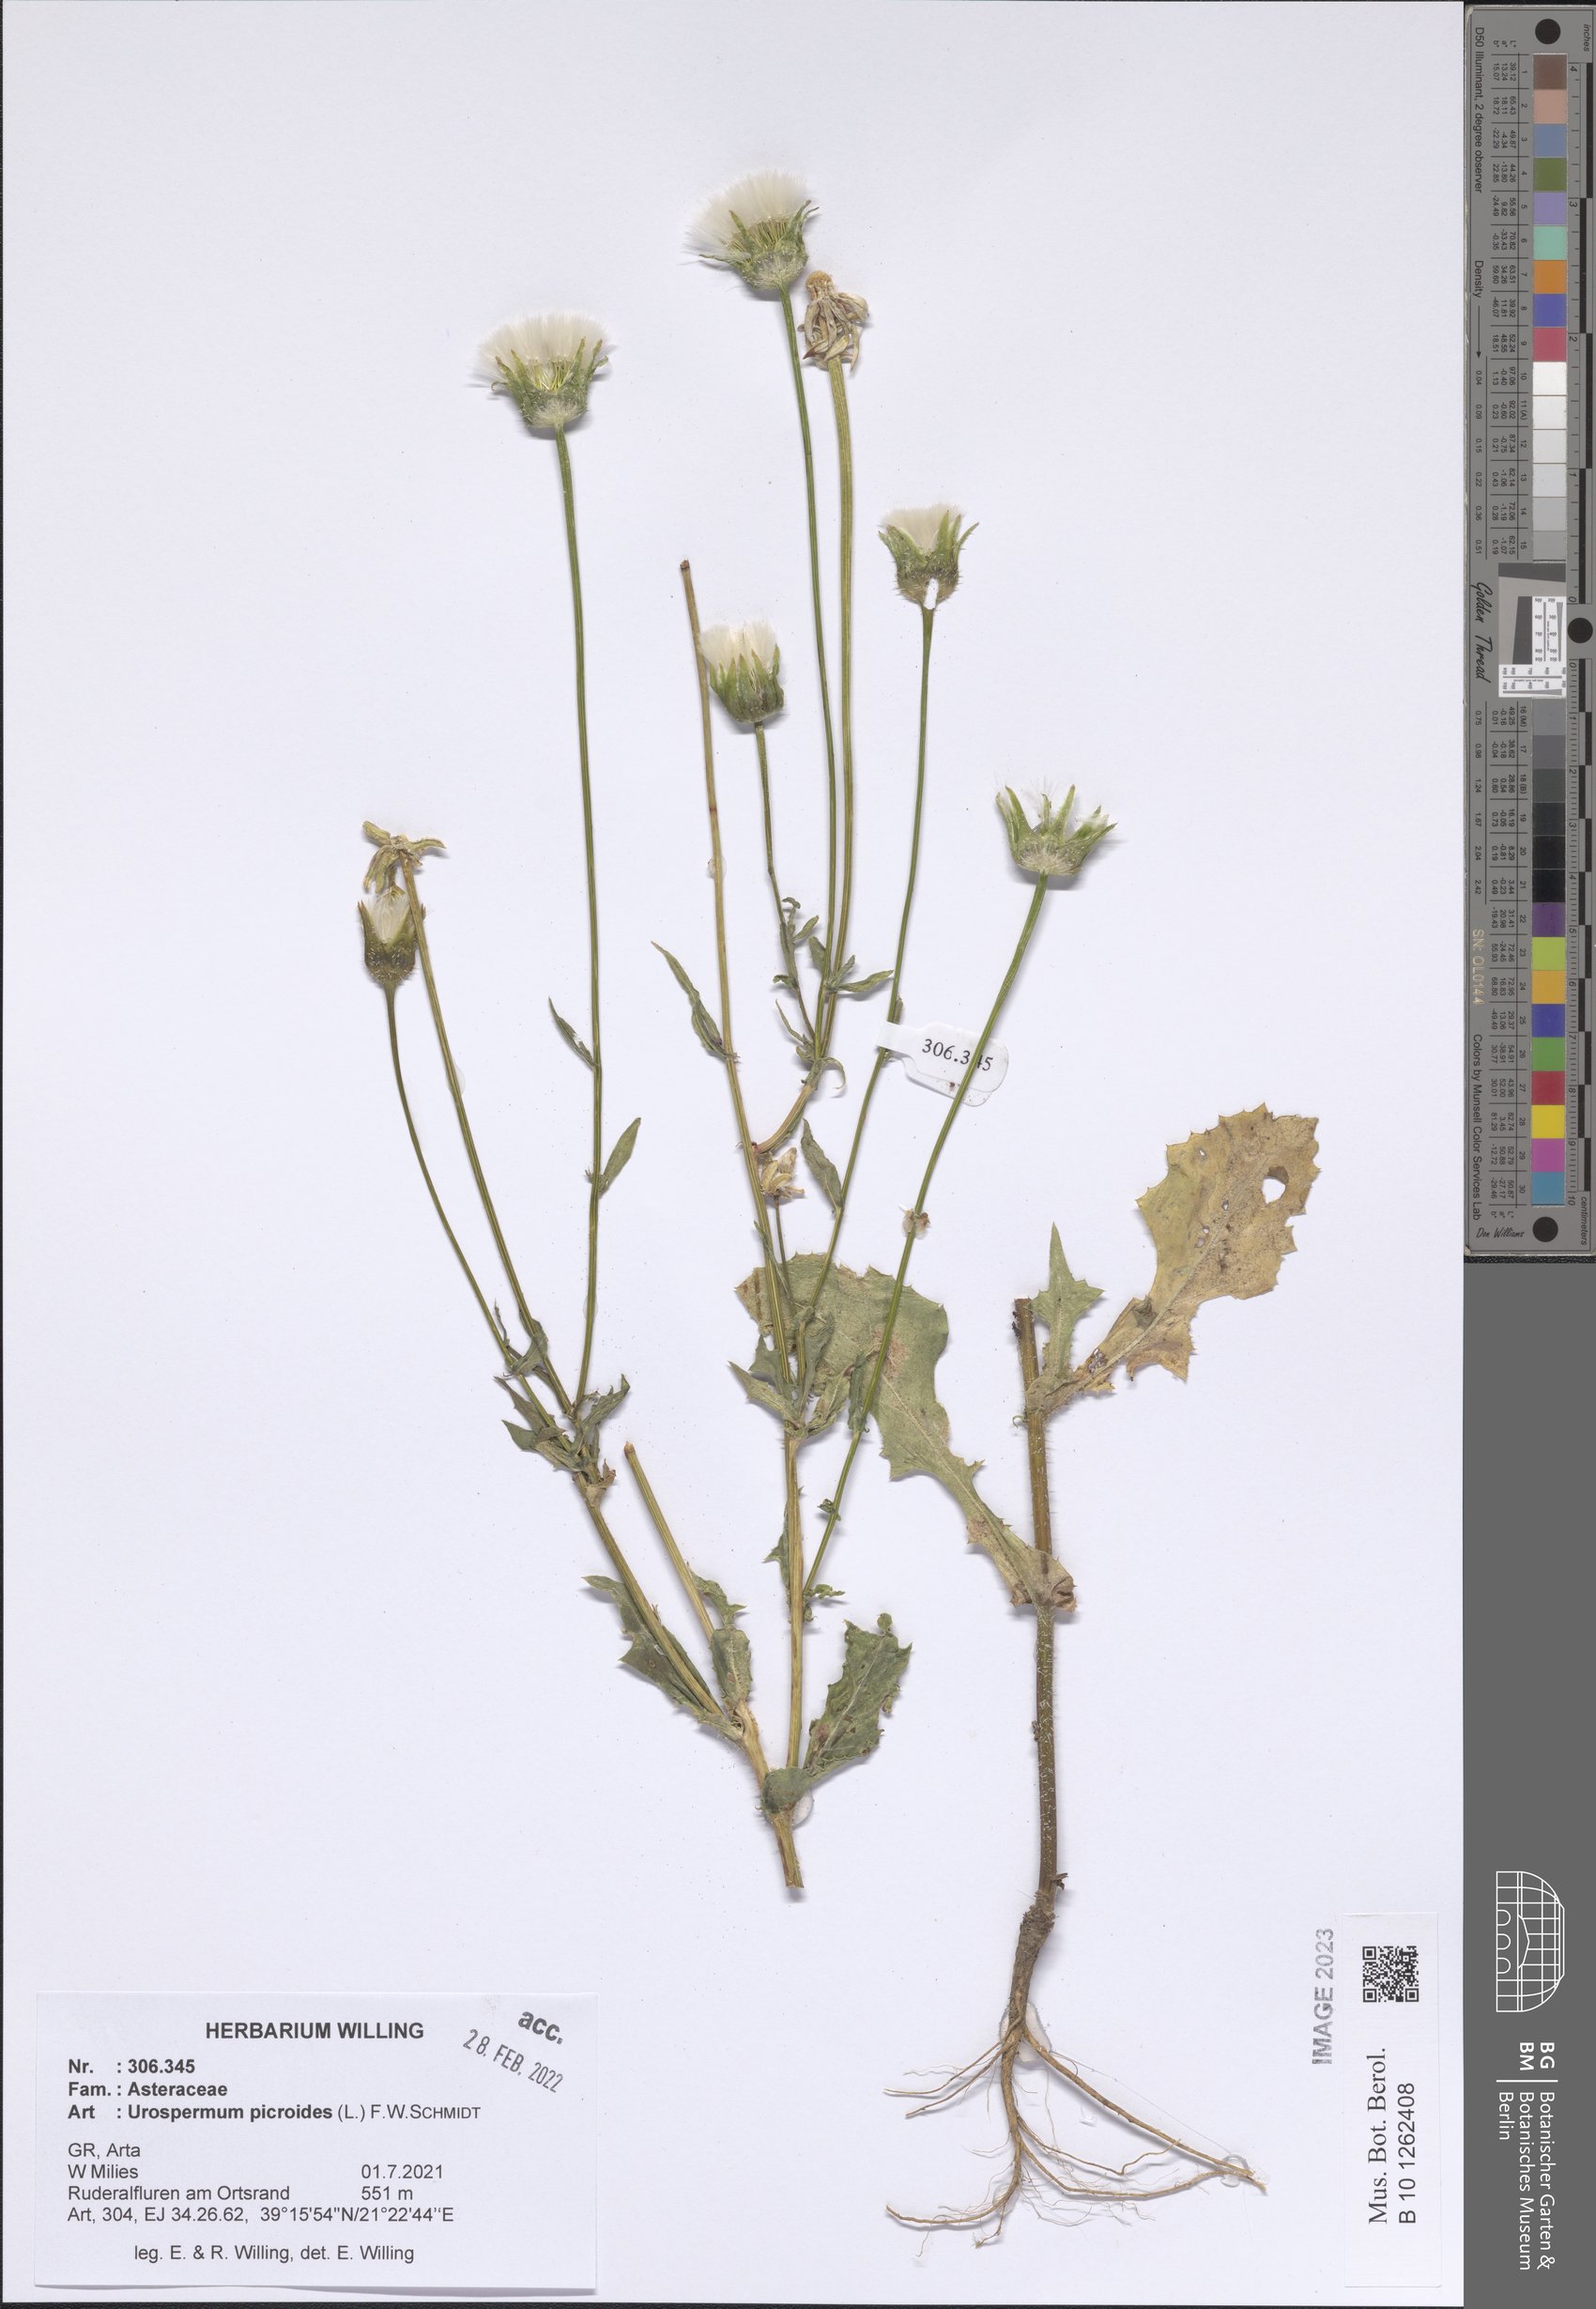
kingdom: Plantae
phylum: Tracheophyta
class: Magnoliopsida
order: Asterales
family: Asteraceae
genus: Urospermum
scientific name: Urospermum picroides
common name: False hawkbit
